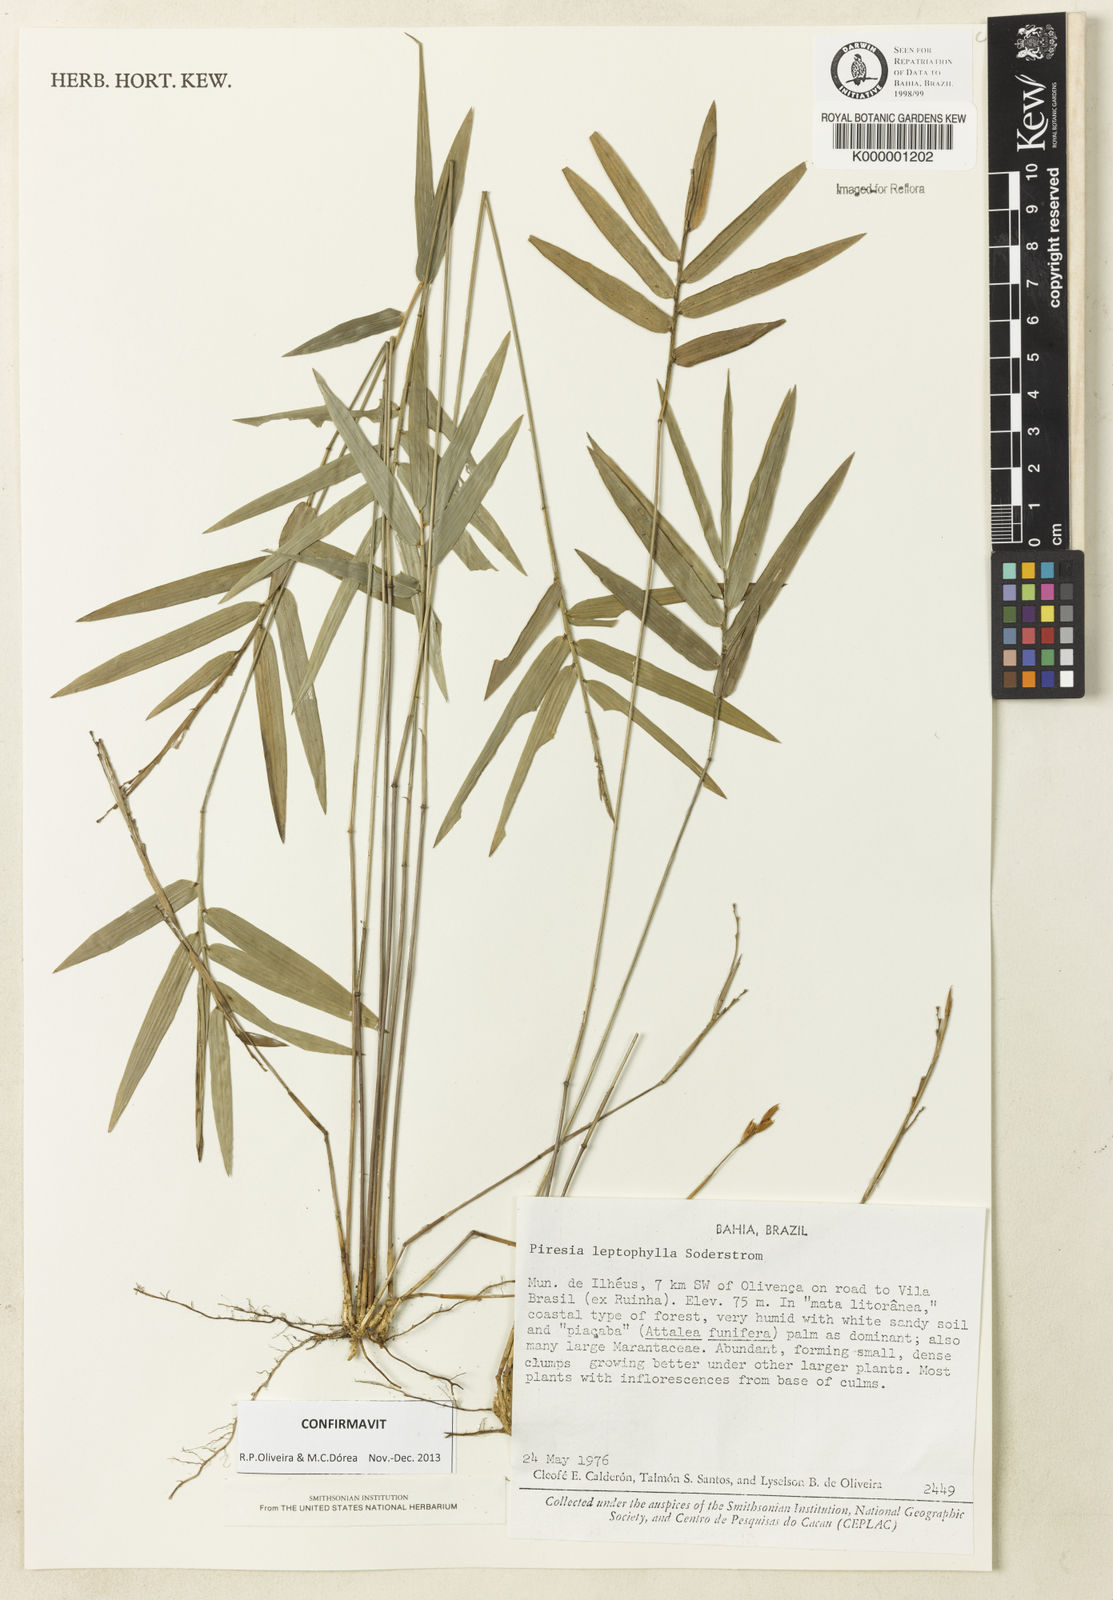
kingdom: Plantae
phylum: Tracheophyta
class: Liliopsida
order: Poales
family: Poaceae
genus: Piresia
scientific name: Piresia leptophylla
